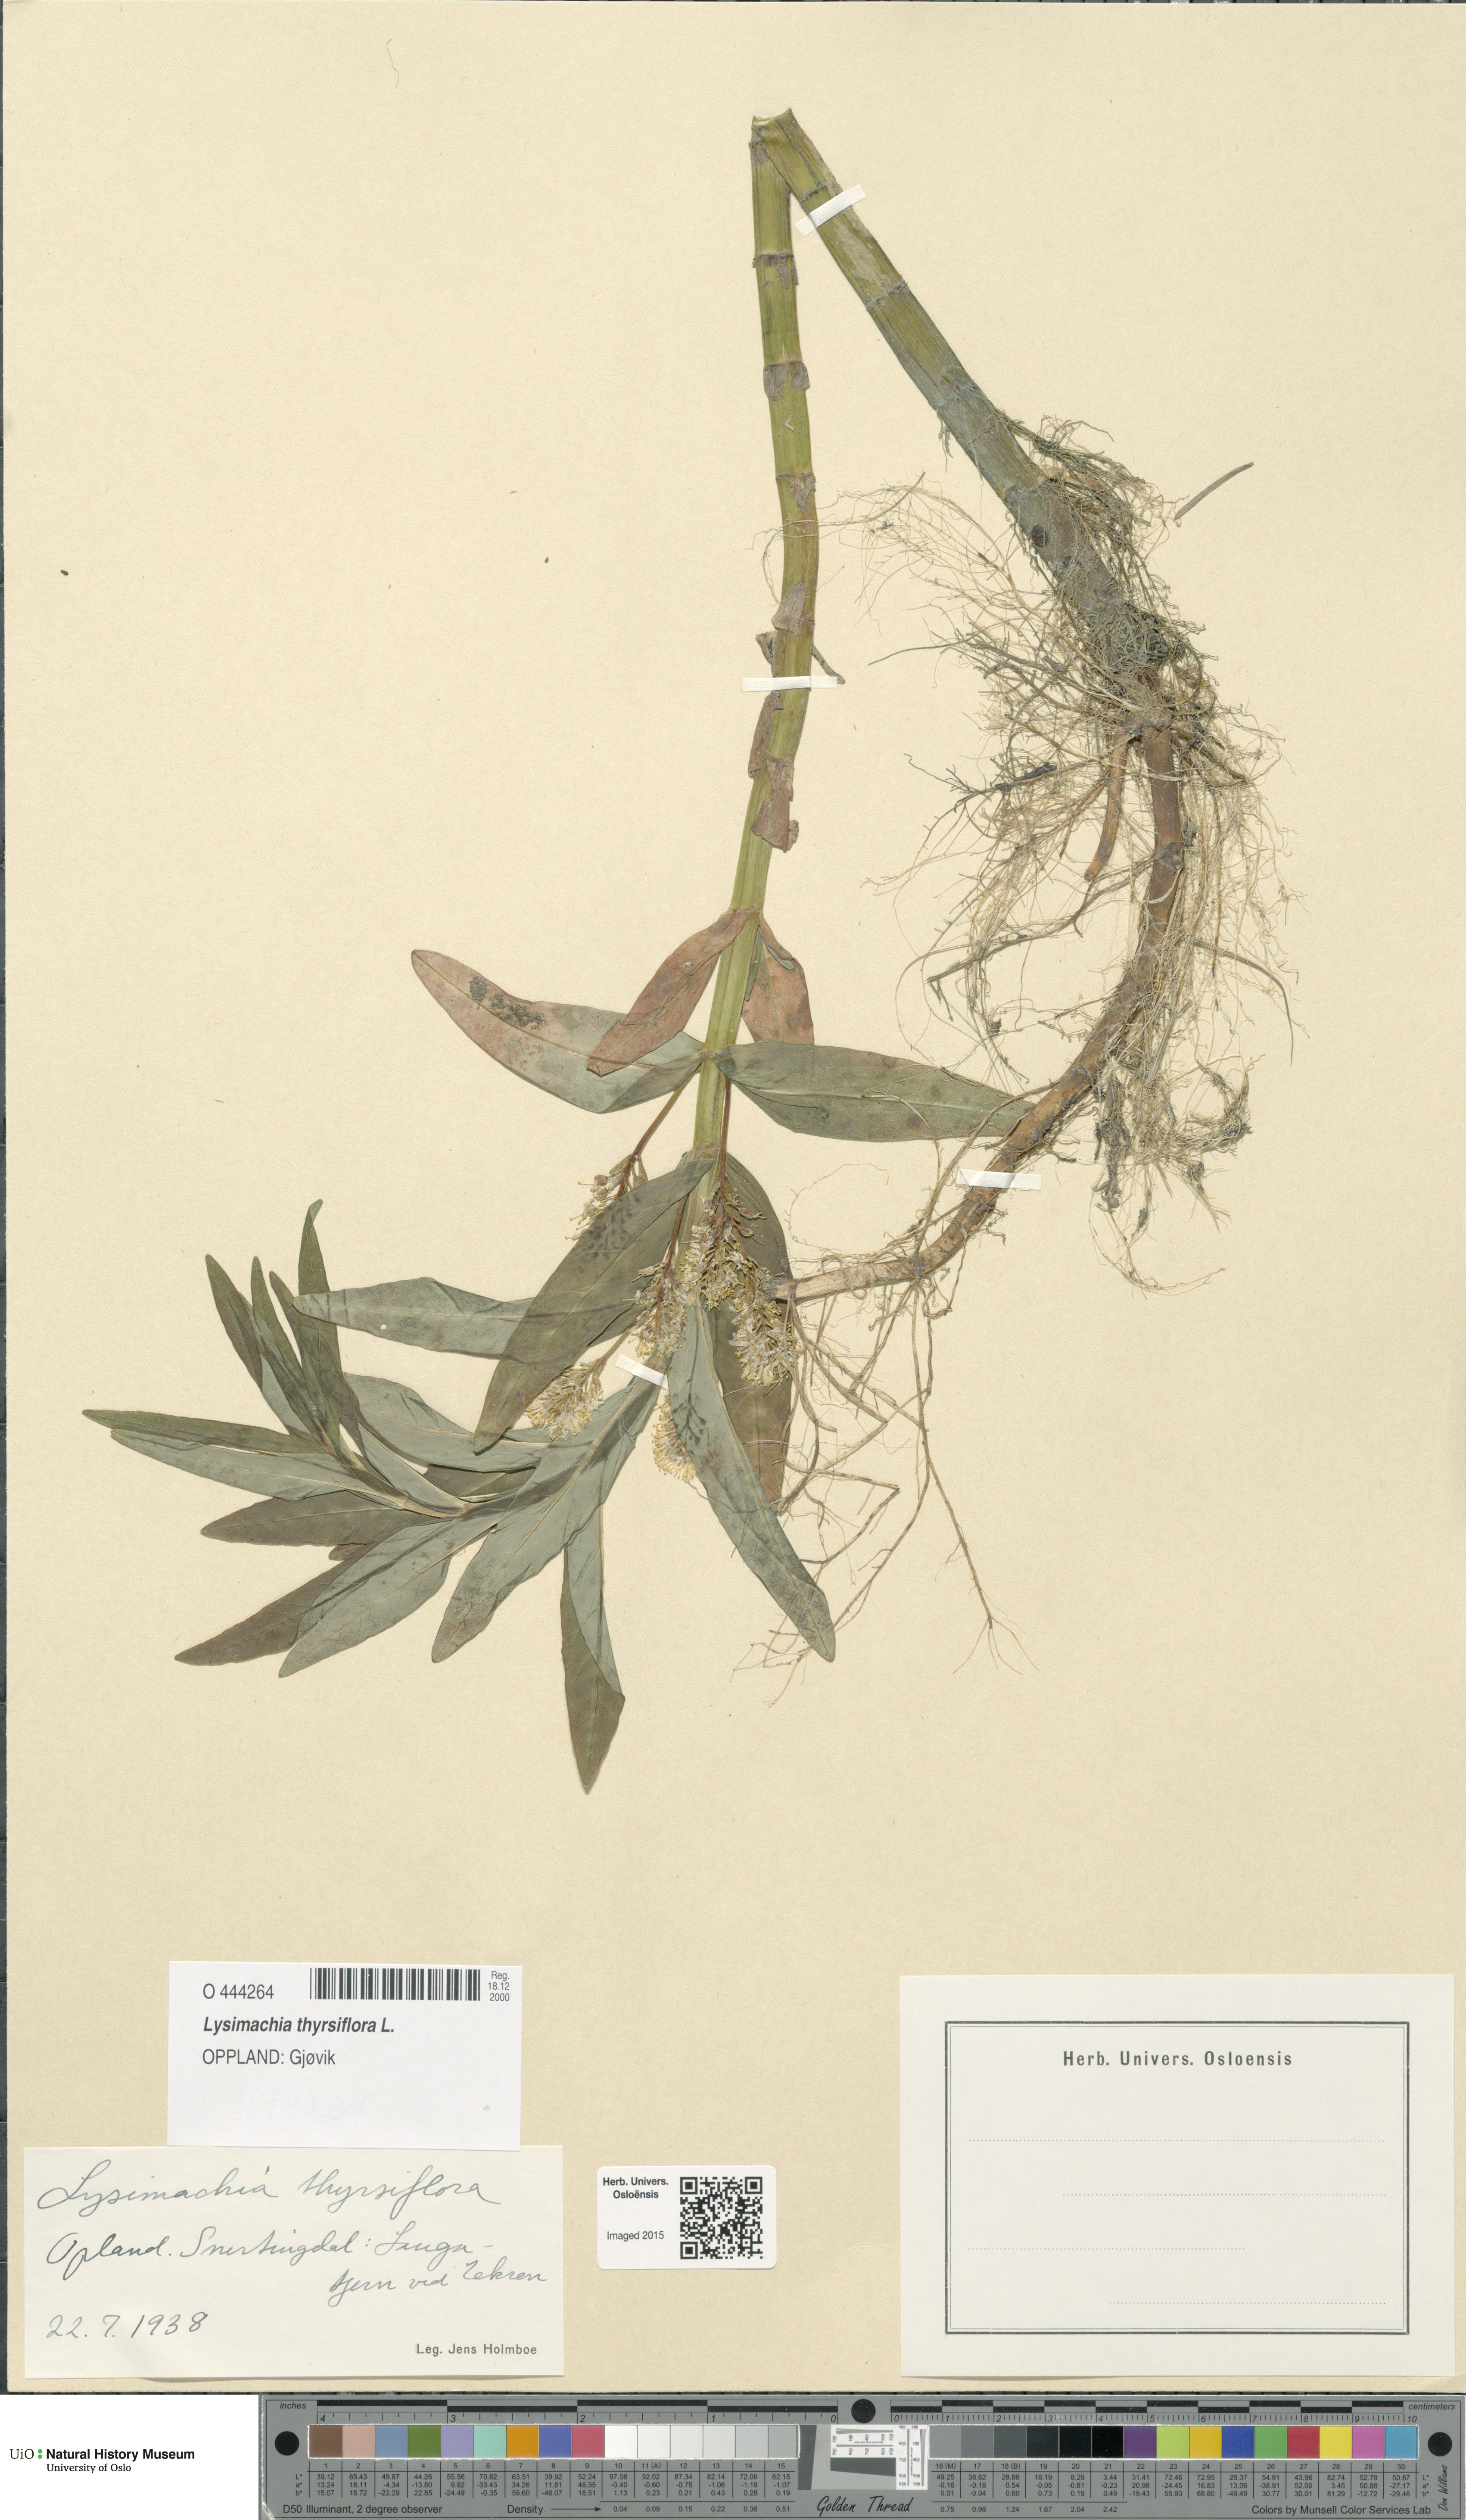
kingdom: Plantae
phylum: Tracheophyta
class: Magnoliopsida
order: Ericales
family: Primulaceae
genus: Lysimachia
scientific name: Lysimachia thyrsiflora
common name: Tufted loosestrife
